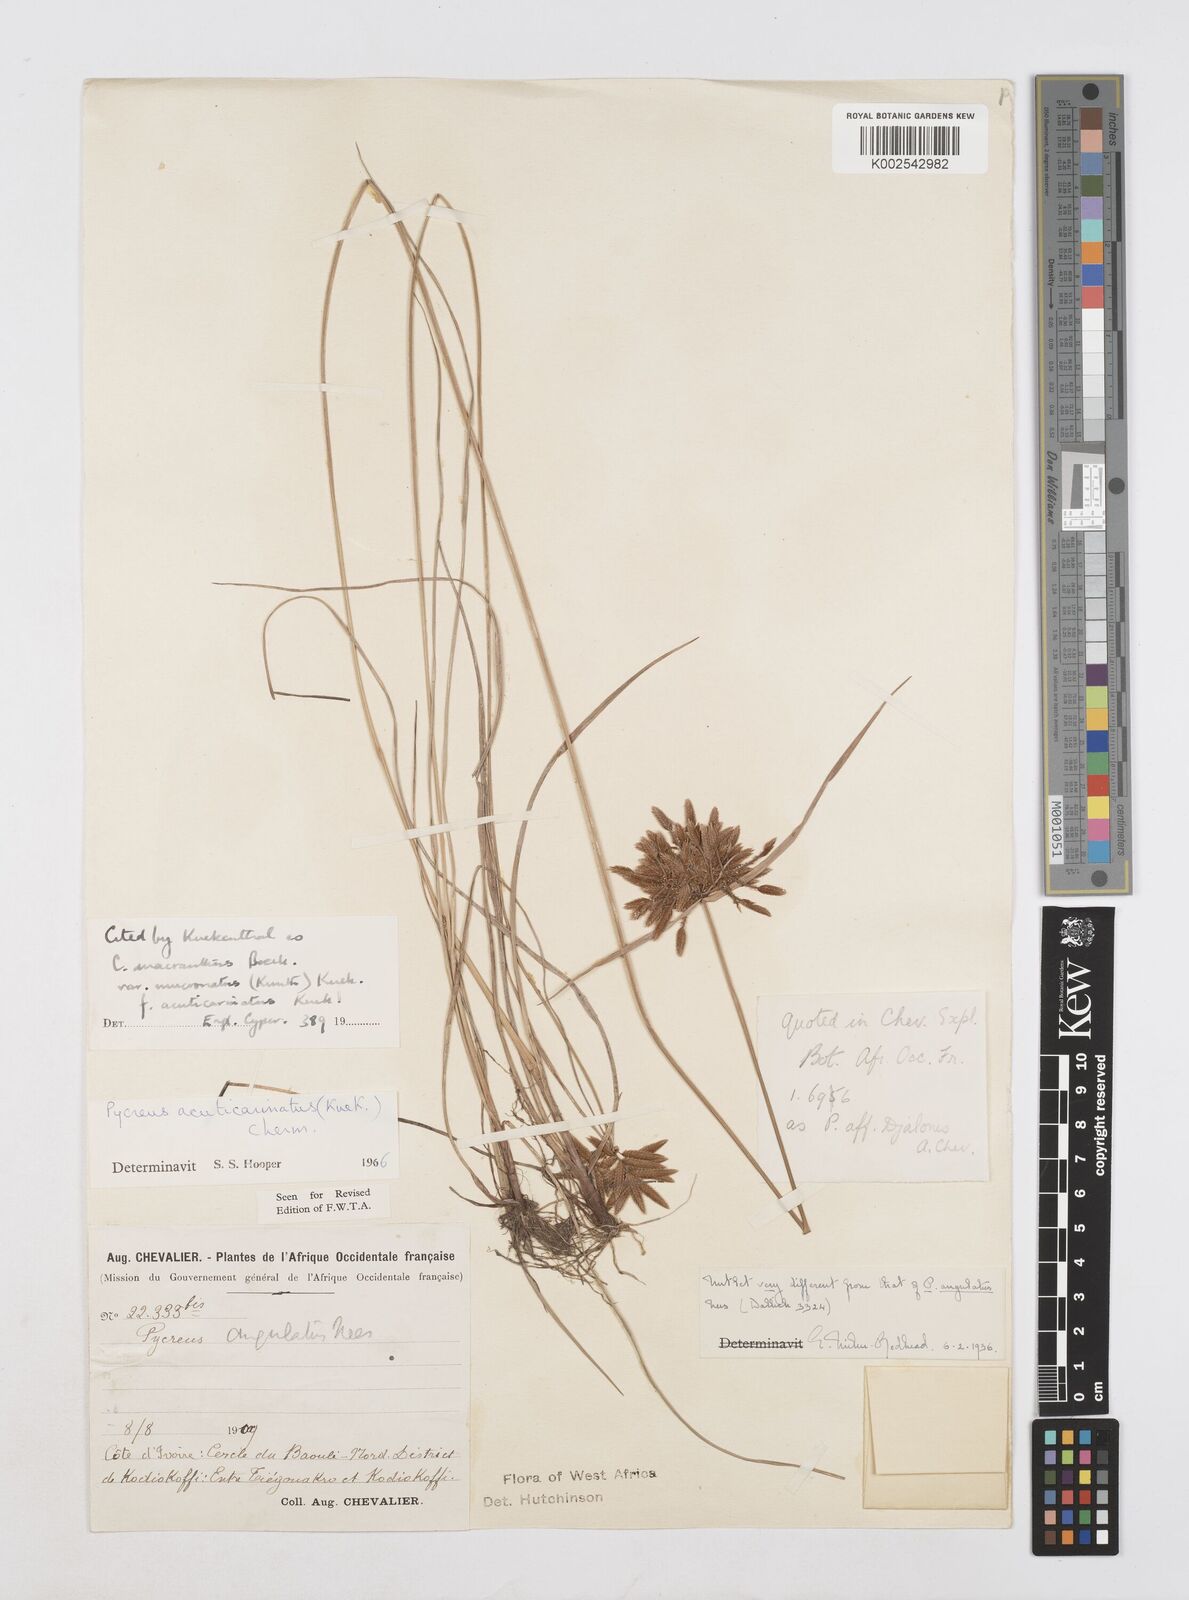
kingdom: Plantae
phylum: Tracheophyta
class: Liliopsida
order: Poales
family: Cyperaceae
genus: Cyperus
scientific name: Cyperus acuticarinatus
